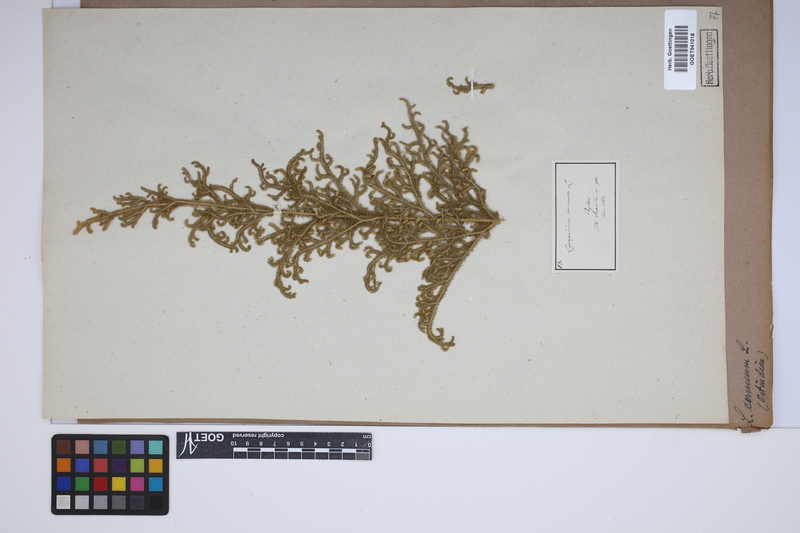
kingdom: Plantae
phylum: Tracheophyta
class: Lycopodiopsida
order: Lycopodiales
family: Lycopodiaceae
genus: Palhinhaea
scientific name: Palhinhaea cernua
